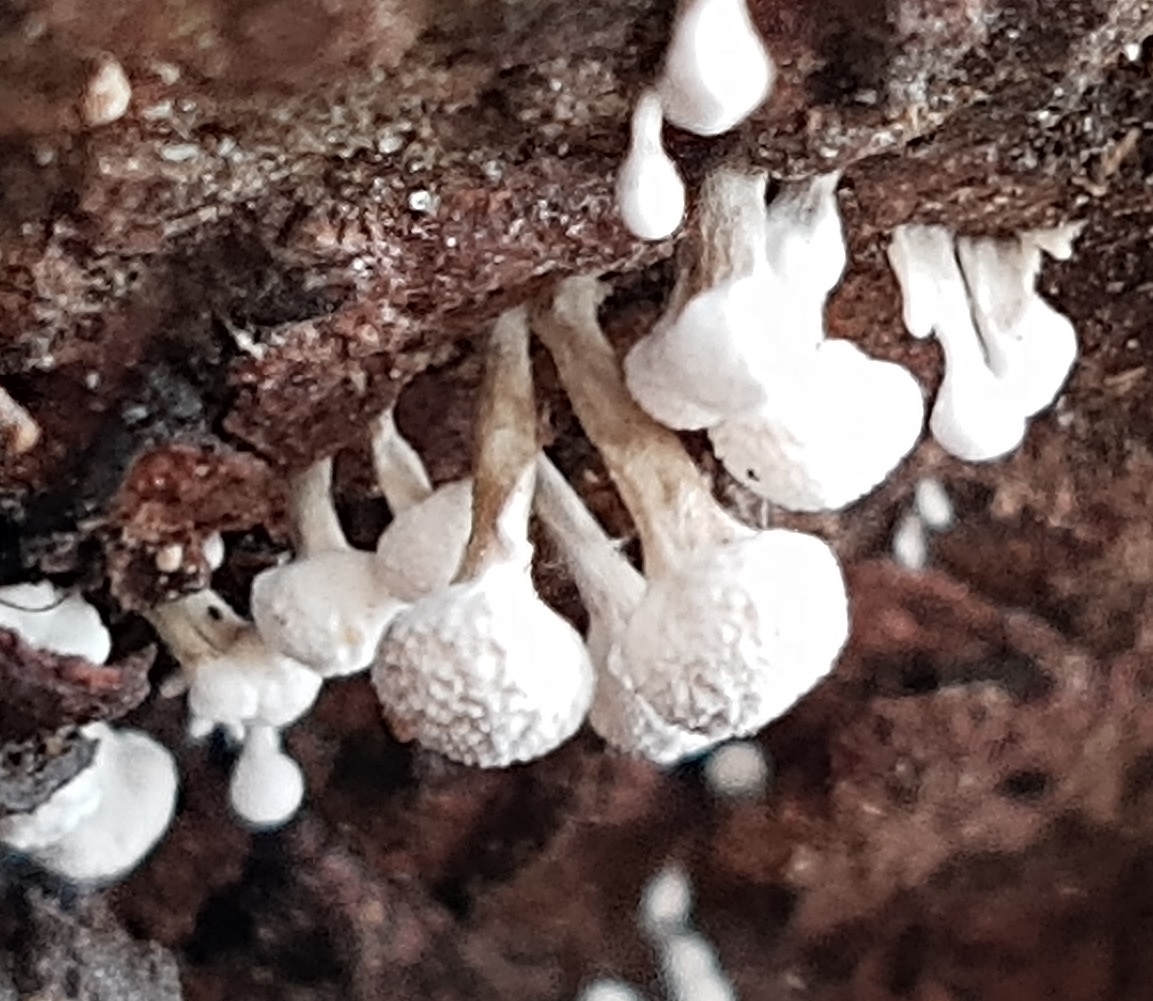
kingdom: Fungi
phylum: Basidiomycota
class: Atractiellomycetes
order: Atractiellales
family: Phleogenaceae
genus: Phleogena
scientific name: Phleogena faginea
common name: pudderkølle
